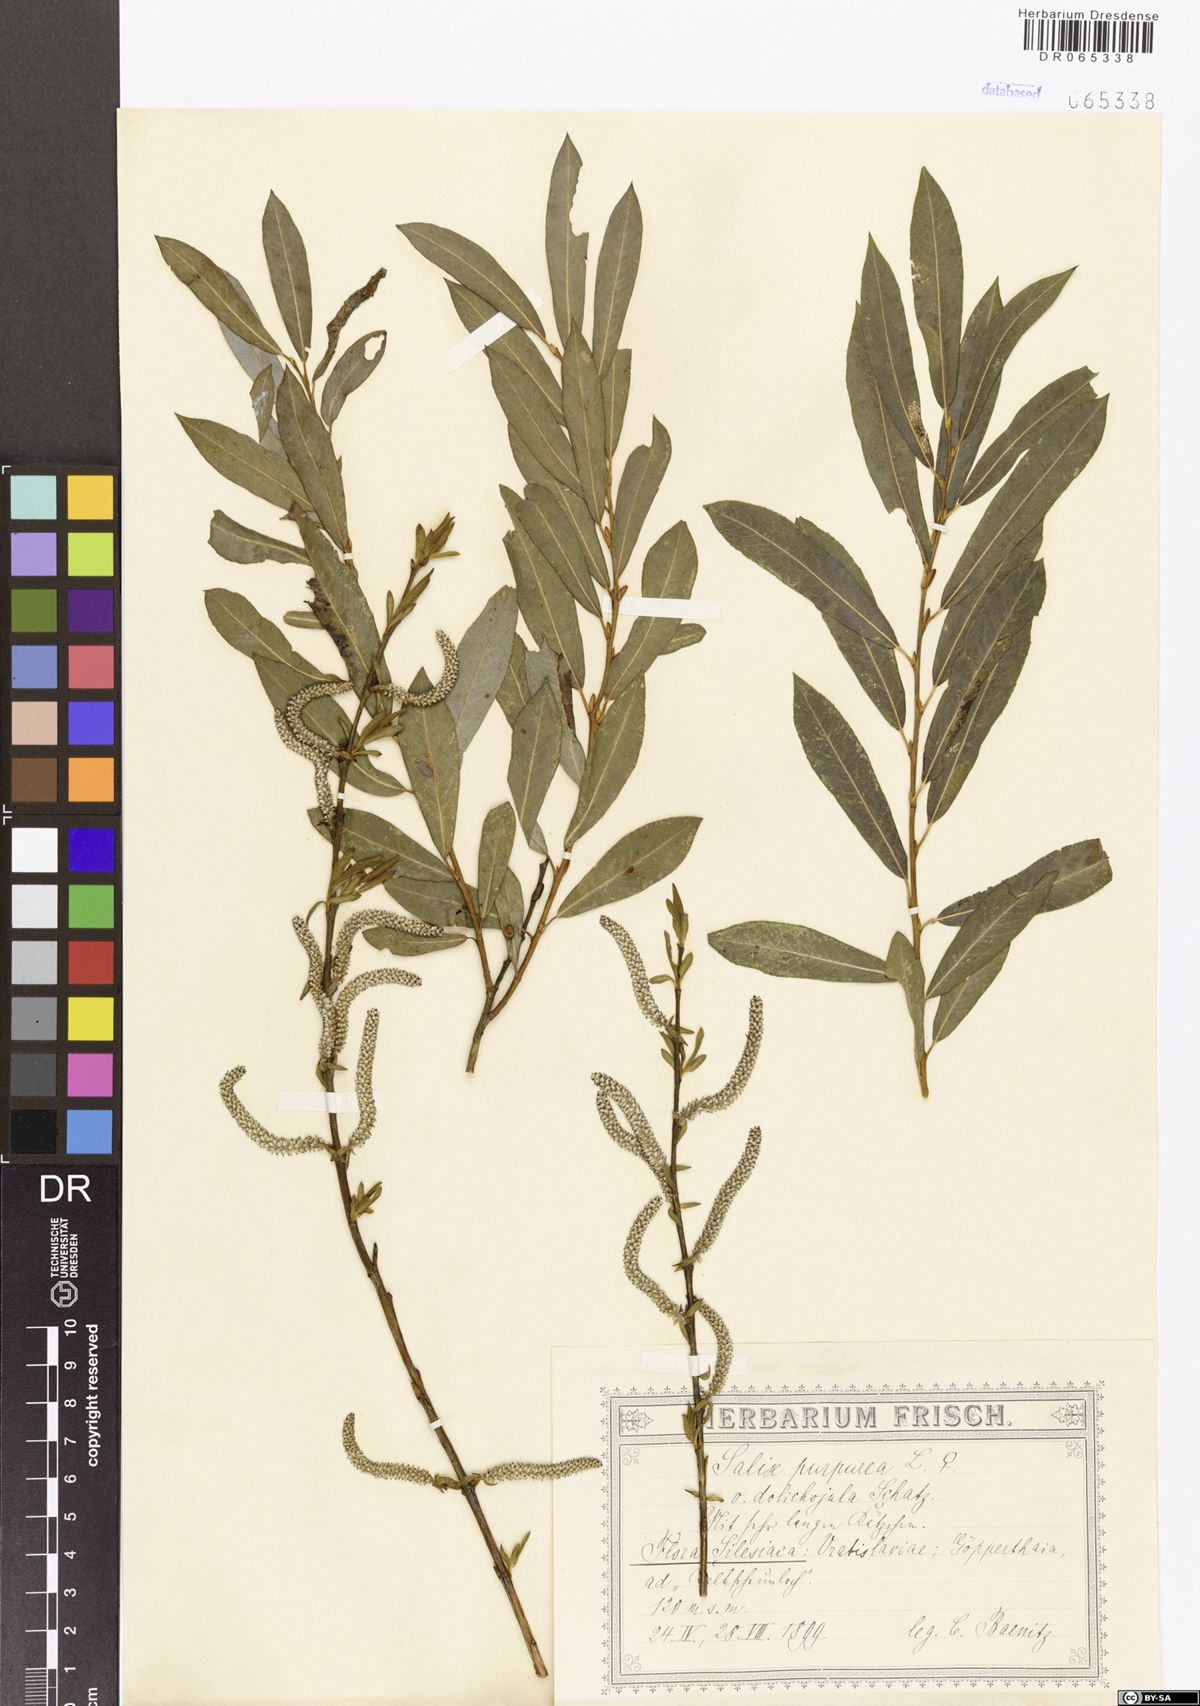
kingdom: Plantae
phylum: Tracheophyta
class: Magnoliopsida
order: Malpighiales
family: Salicaceae
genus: Salix
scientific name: Salix purpurea
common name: Purple willow
